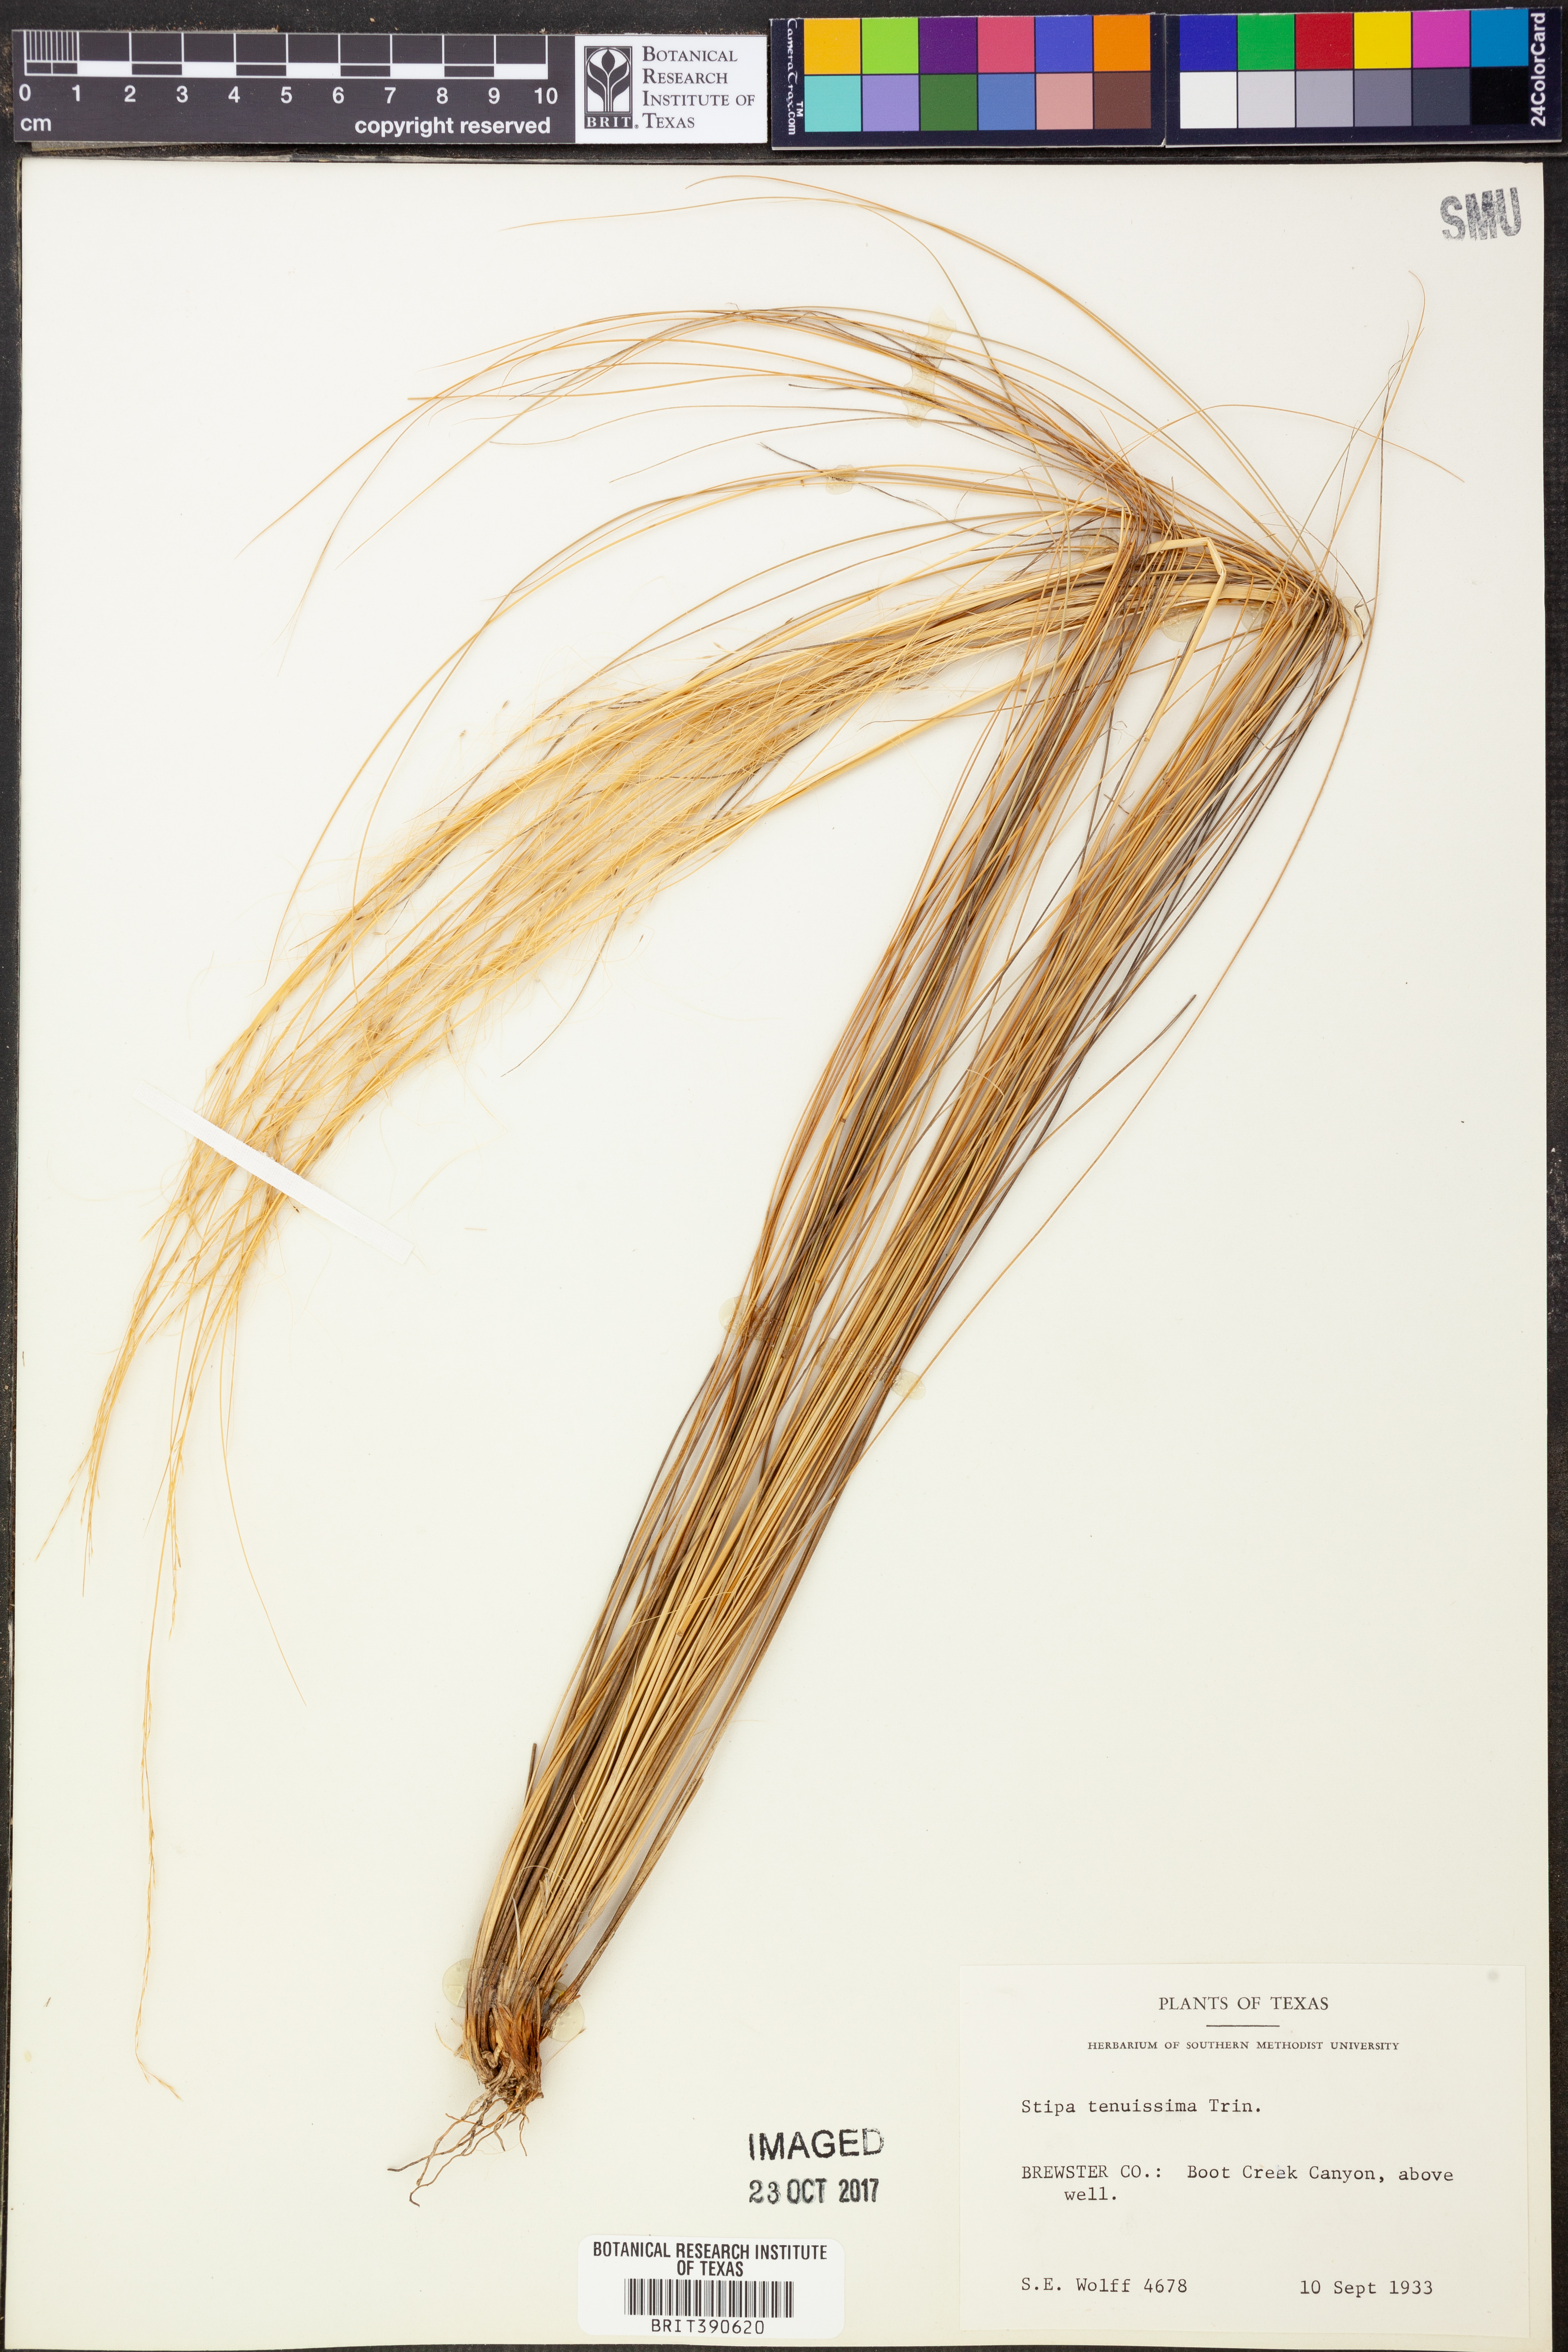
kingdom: Plantae
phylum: Tracheophyta
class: Liliopsida
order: Poales
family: Poaceae
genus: Nassella
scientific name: Nassella tenuissima
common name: Argentine needlegrass
